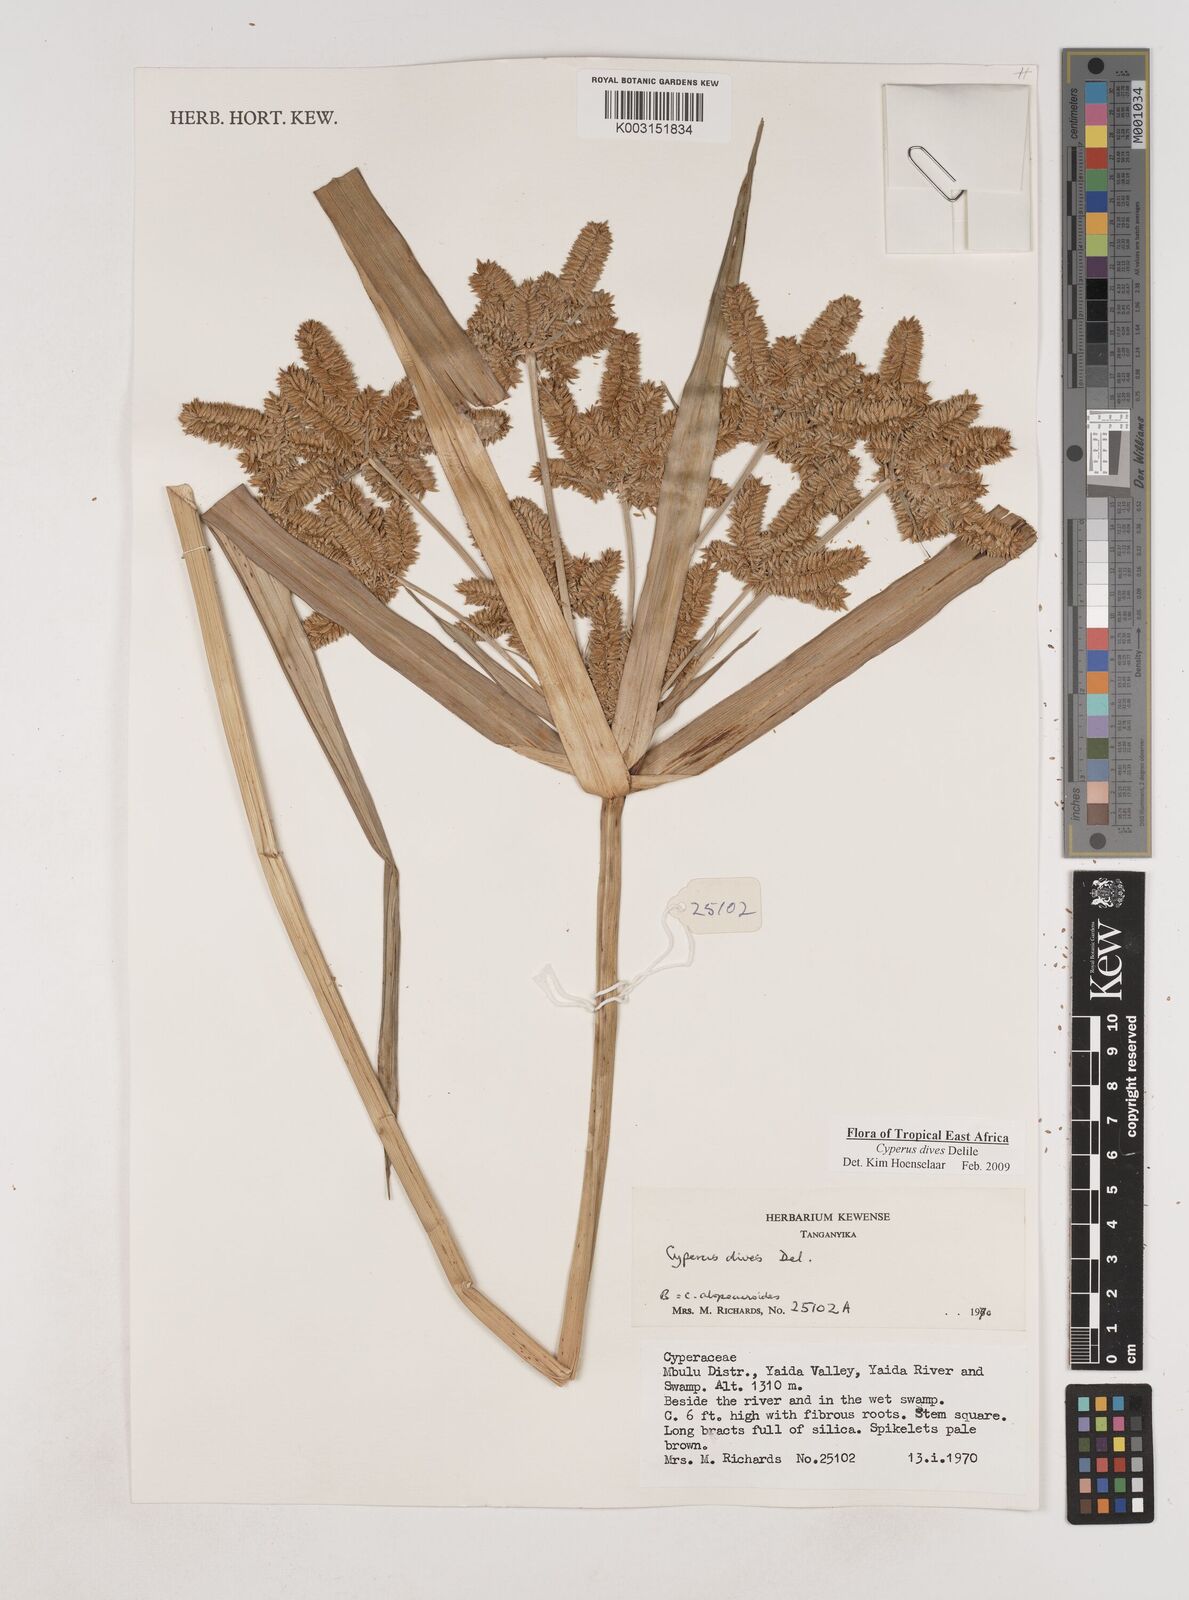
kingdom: Plantae
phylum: Tracheophyta
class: Liliopsida
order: Poales
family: Cyperaceae
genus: Cyperus
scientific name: Cyperus dives
